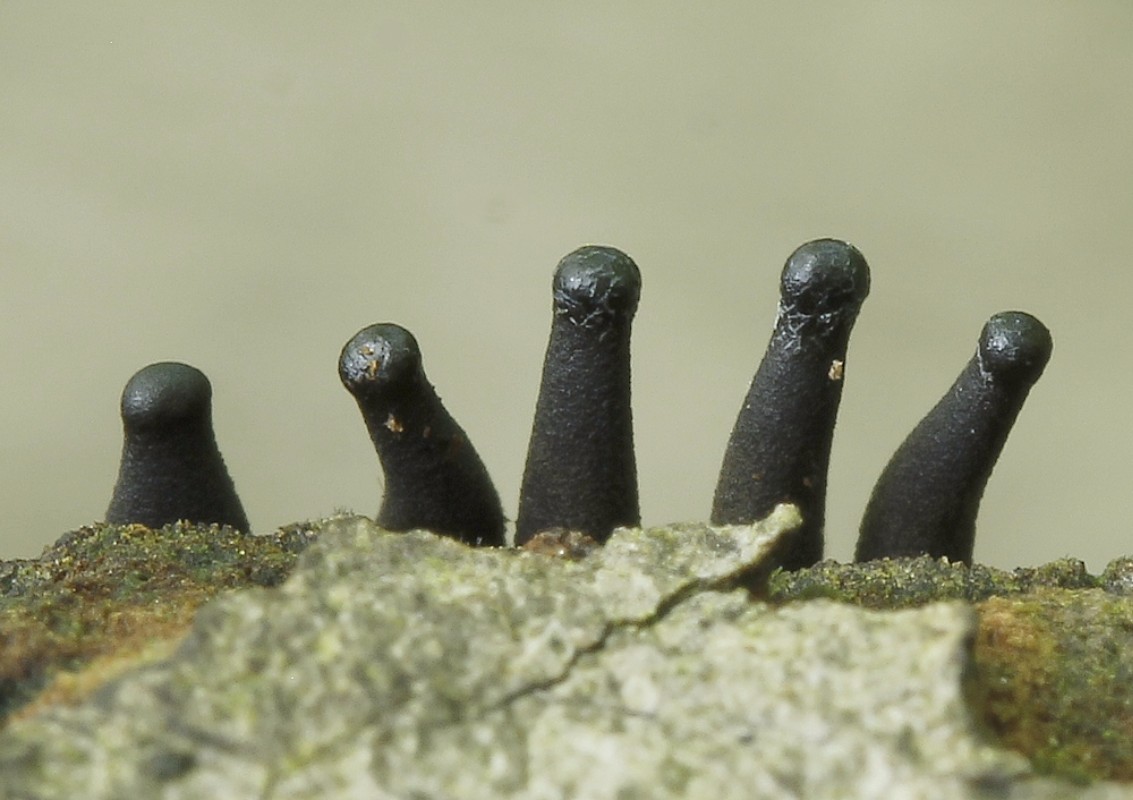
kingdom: Fungi
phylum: Ascomycota
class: Leotiomycetes
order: Helotiales
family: Bulgariaceae
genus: Holwaya
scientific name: Holwaya mucida
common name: lindeskive
